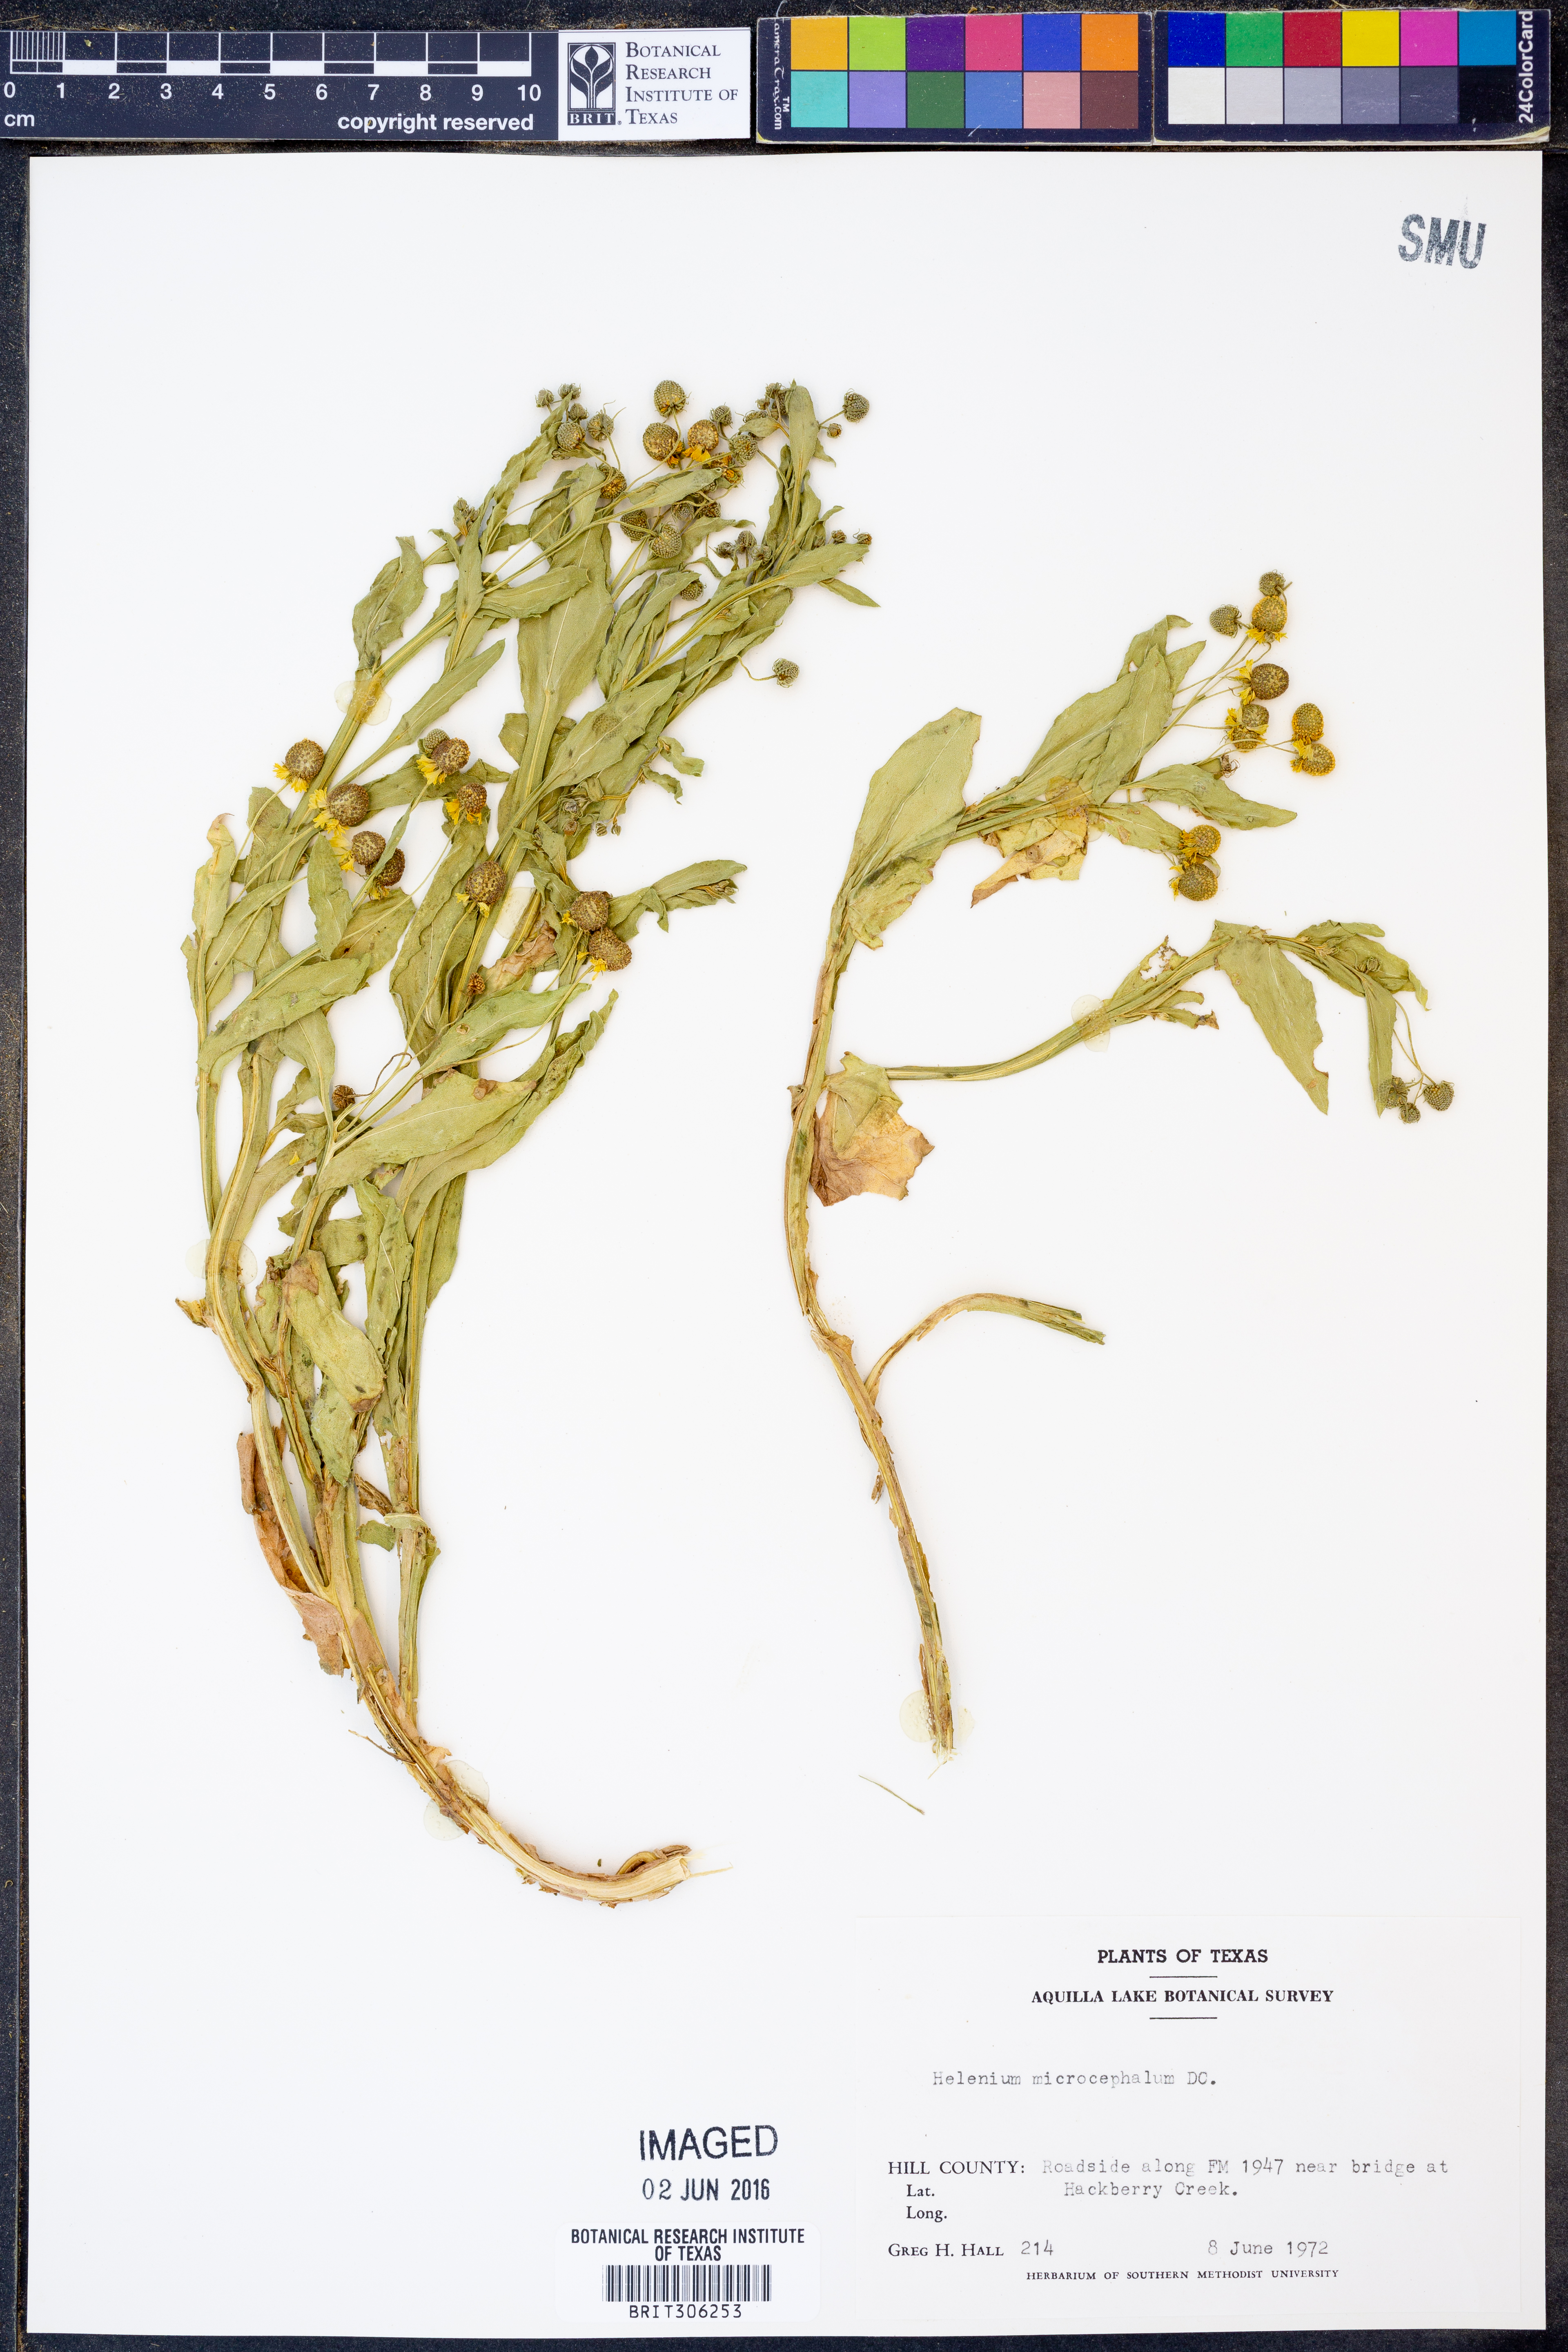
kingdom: Plantae
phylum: Tracheophyta
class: Magnoliopsida
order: Asterales
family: Asteraceae
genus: Helenium
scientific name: Helenium microcephalum
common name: Smallhead sneezeweed
